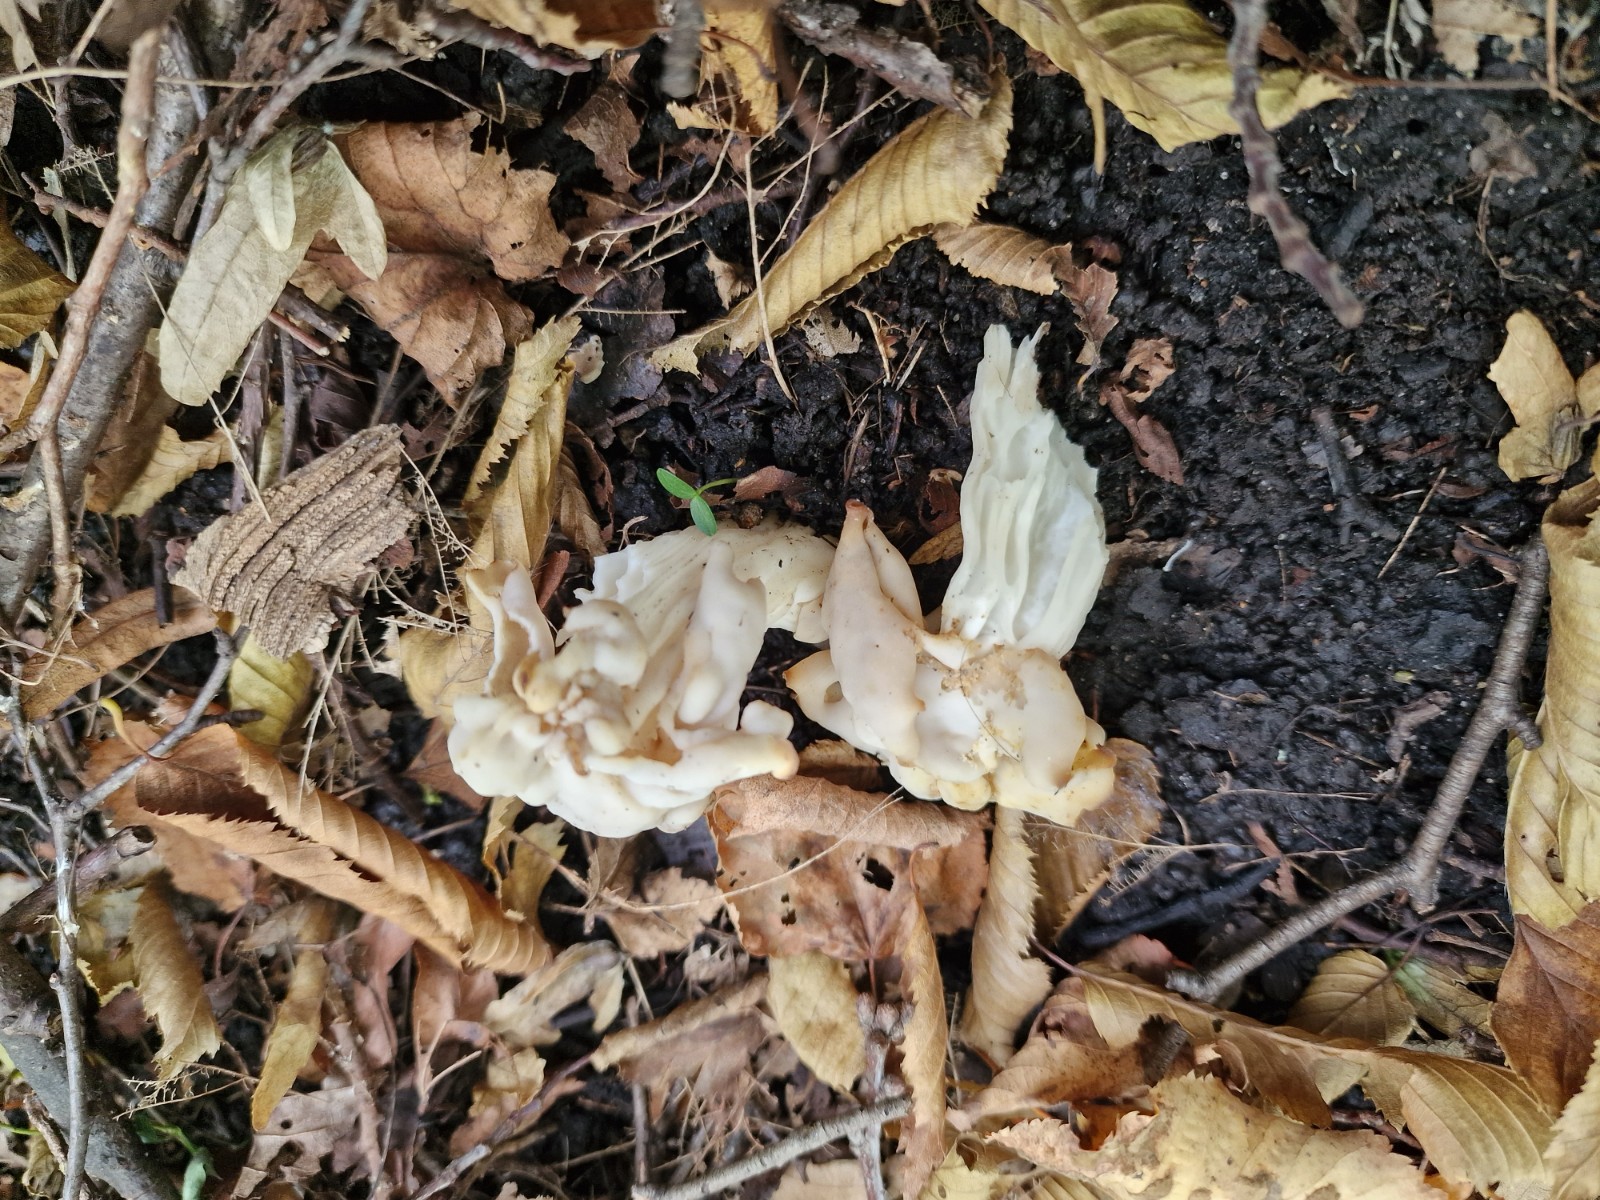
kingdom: Fungi
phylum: Ascomycota
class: Pezizomycetes
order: Pezizales
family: Helvellaceae
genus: Helvella
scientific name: Helvella crispa
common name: kruset foldhat
